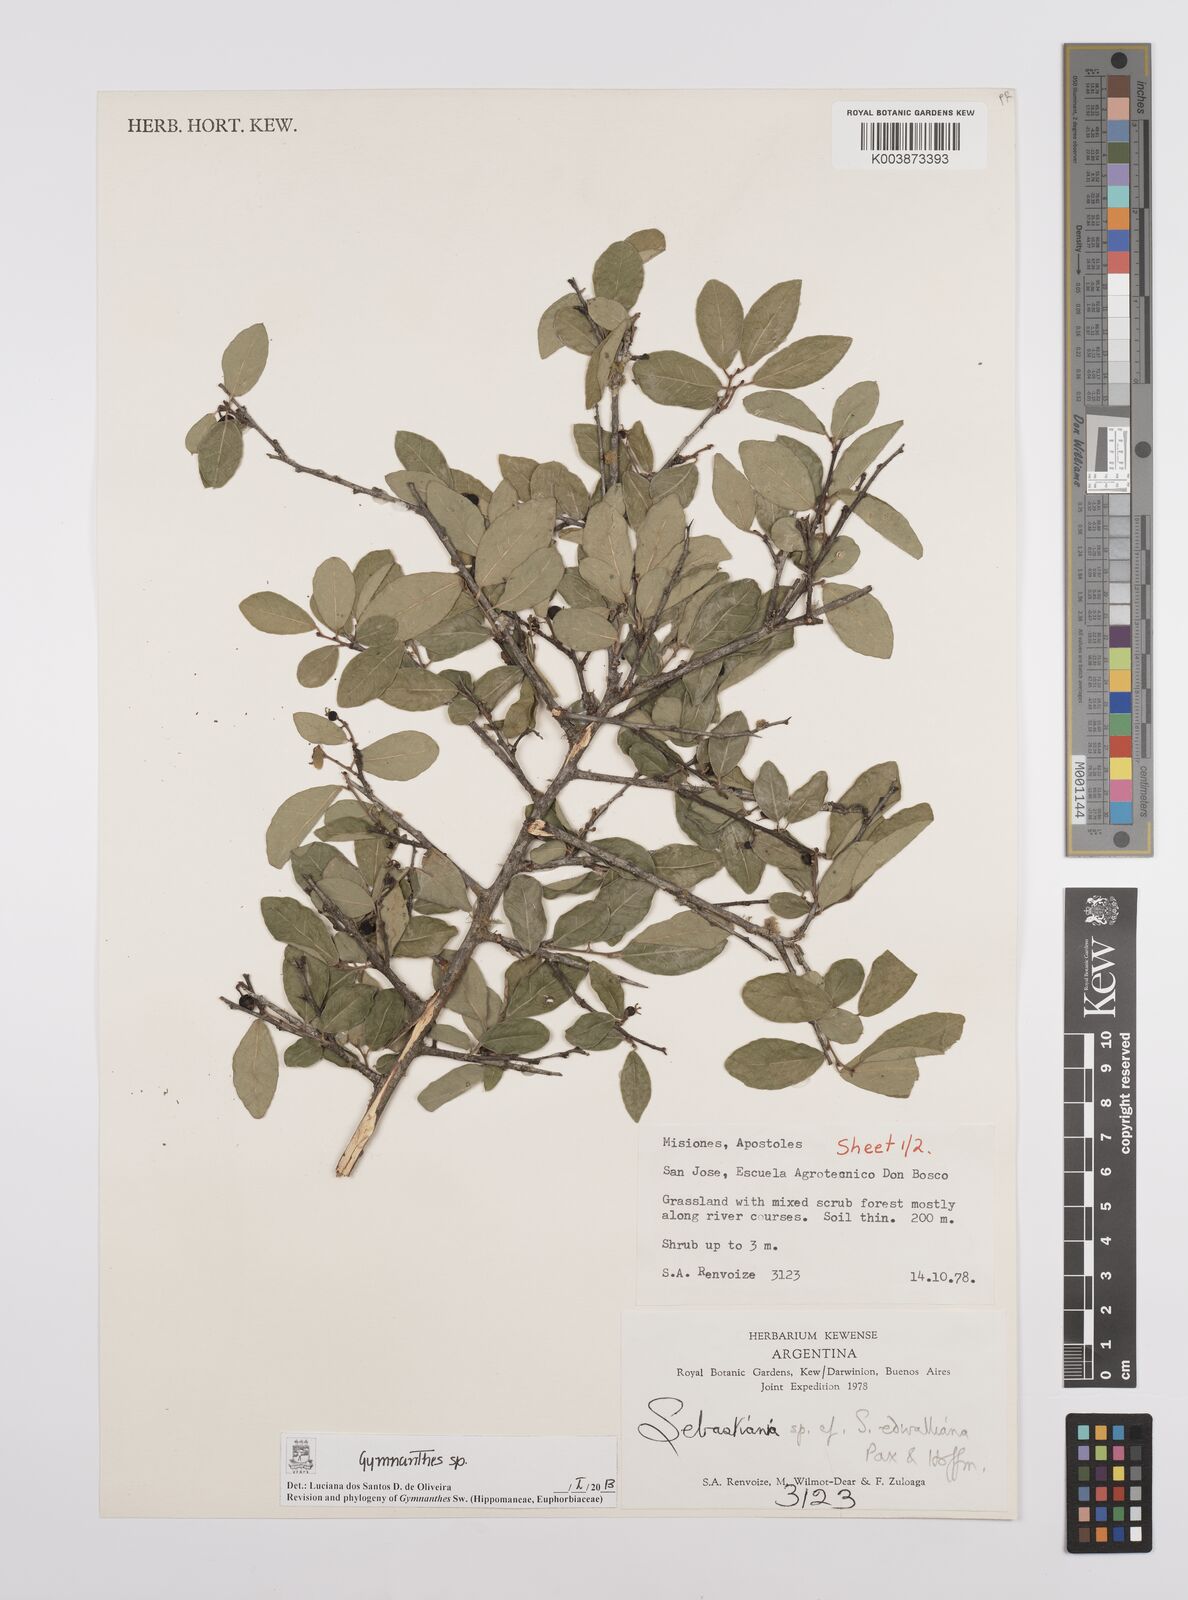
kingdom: Plantae
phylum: Tracheophyta
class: Magnoliopsida
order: Malpighiales
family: Euphorbiaceae
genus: Gymnanthes
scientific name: Gymnanthes
